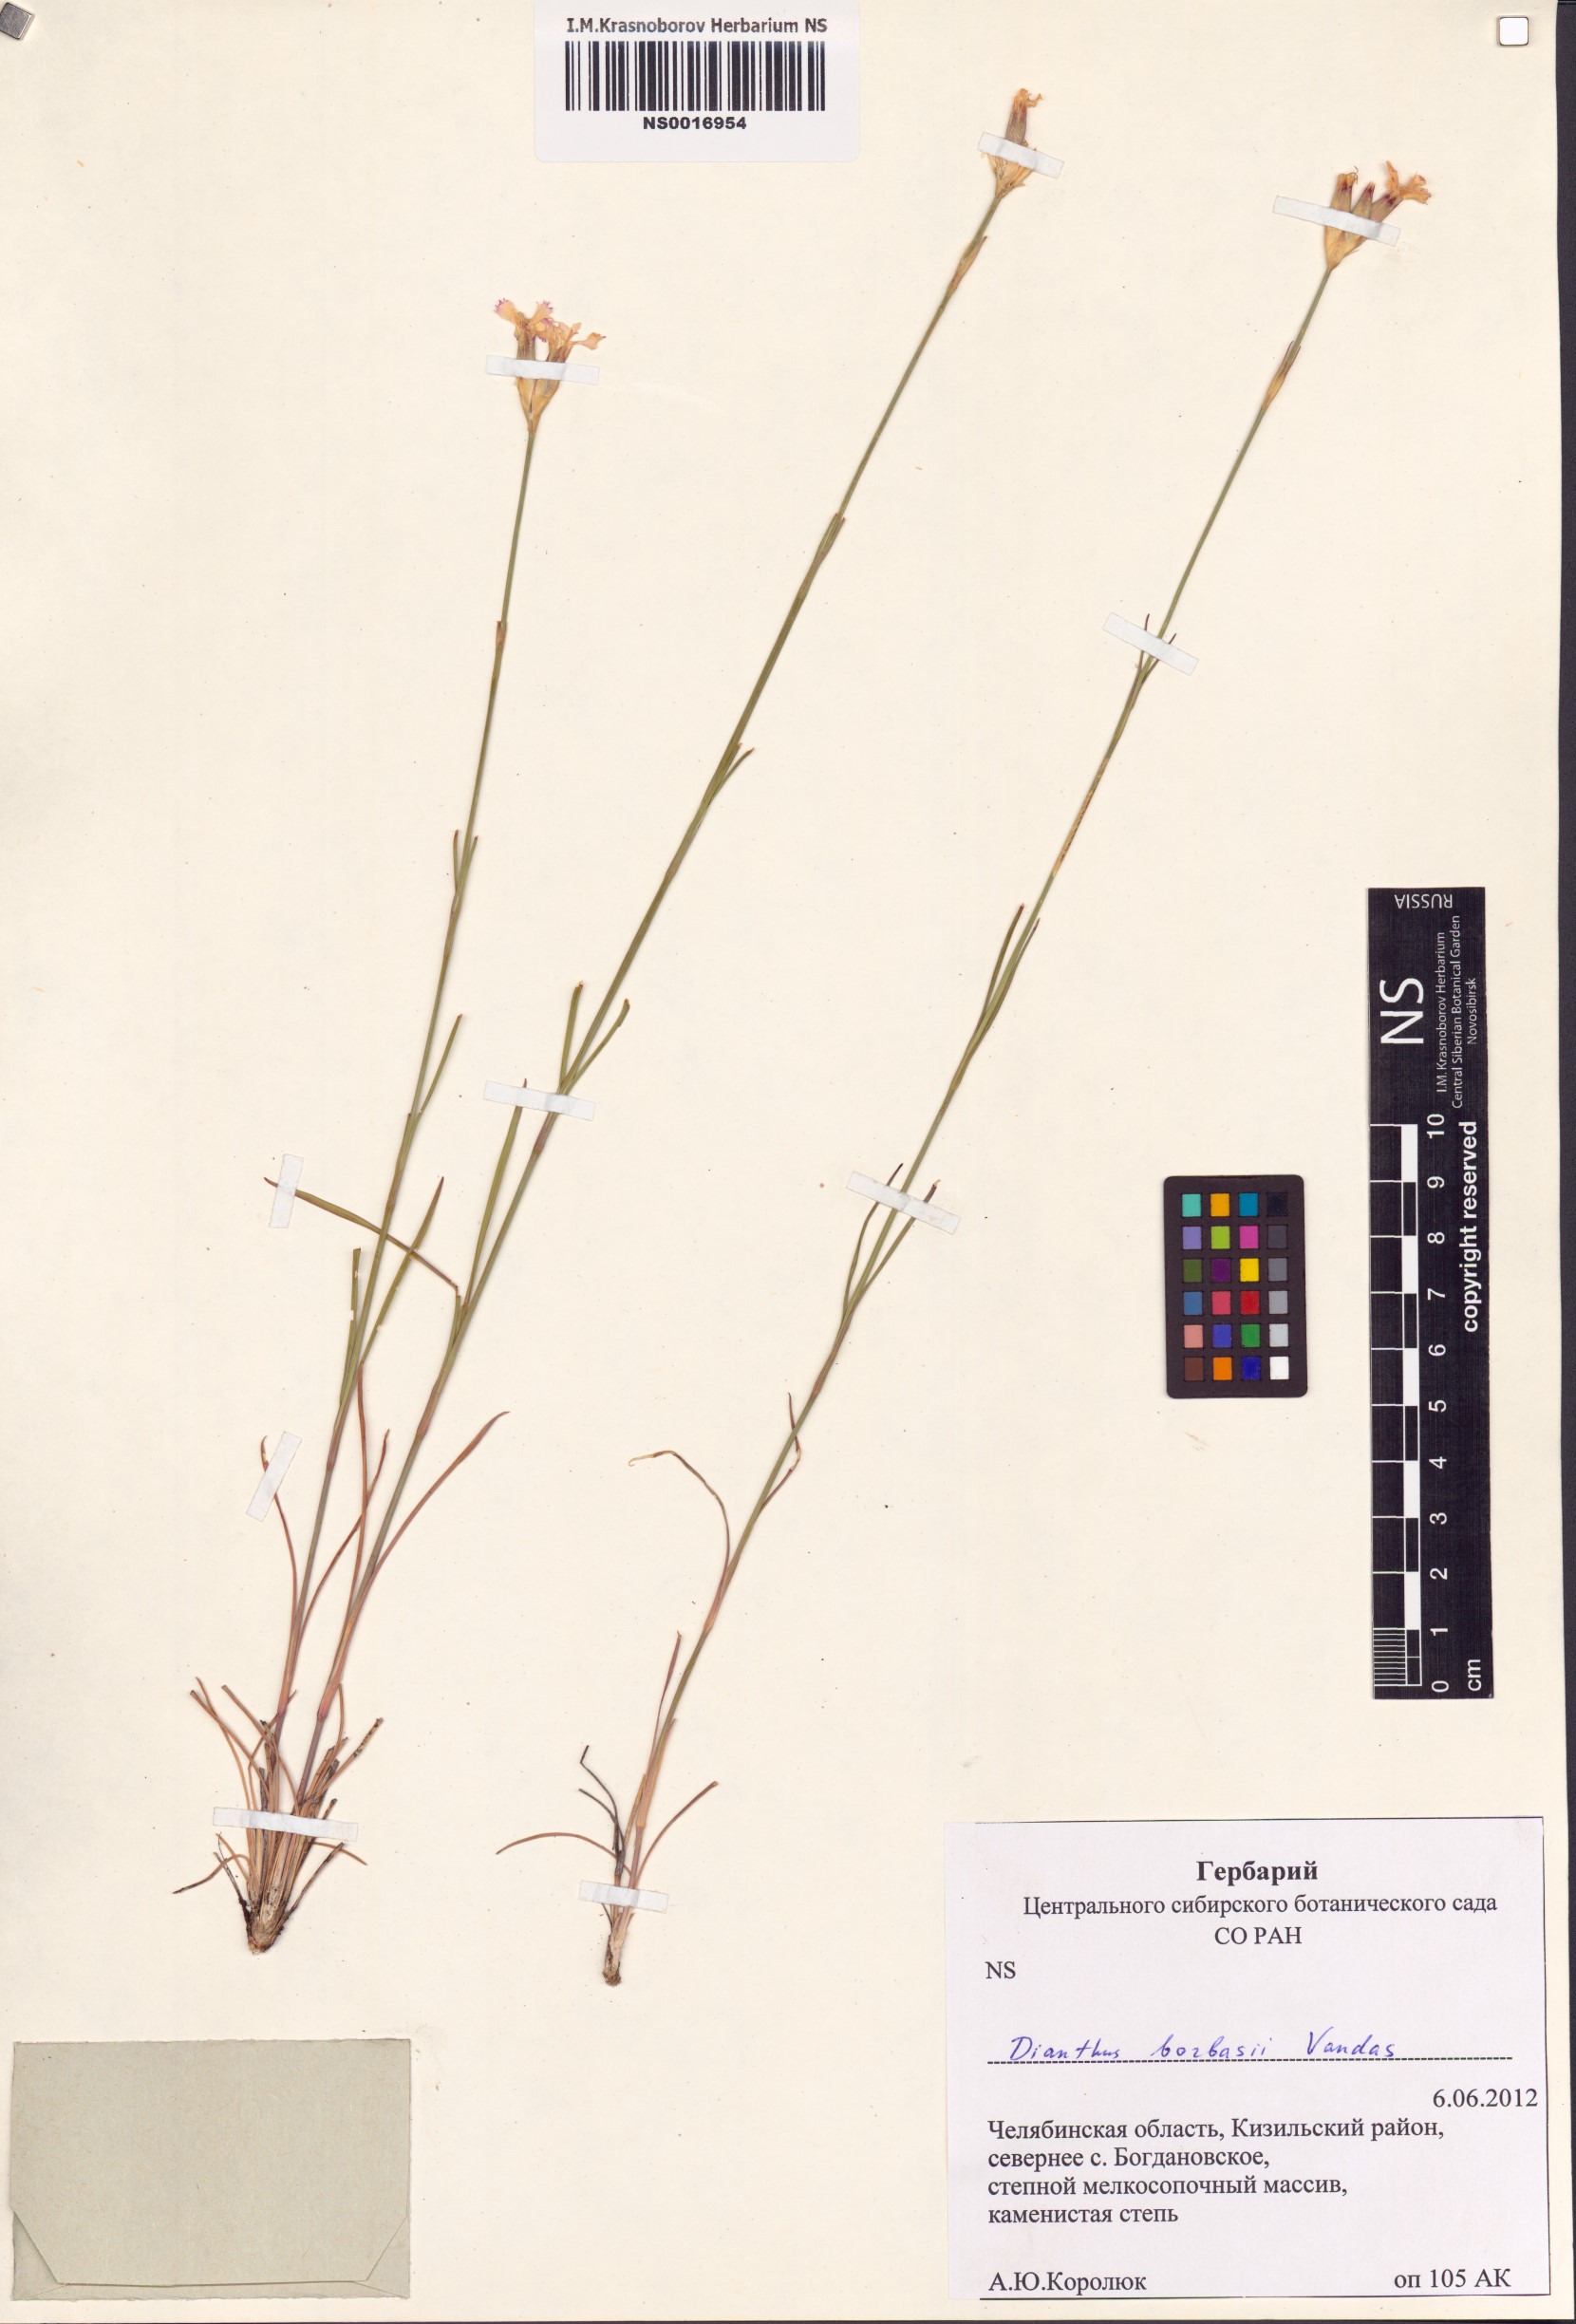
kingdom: Plantae
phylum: Tracheophyta
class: Magnoliopsida
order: Caryophyllales
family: Caryophyllaceae
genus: Dianthus
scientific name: Dianthus borbasii
